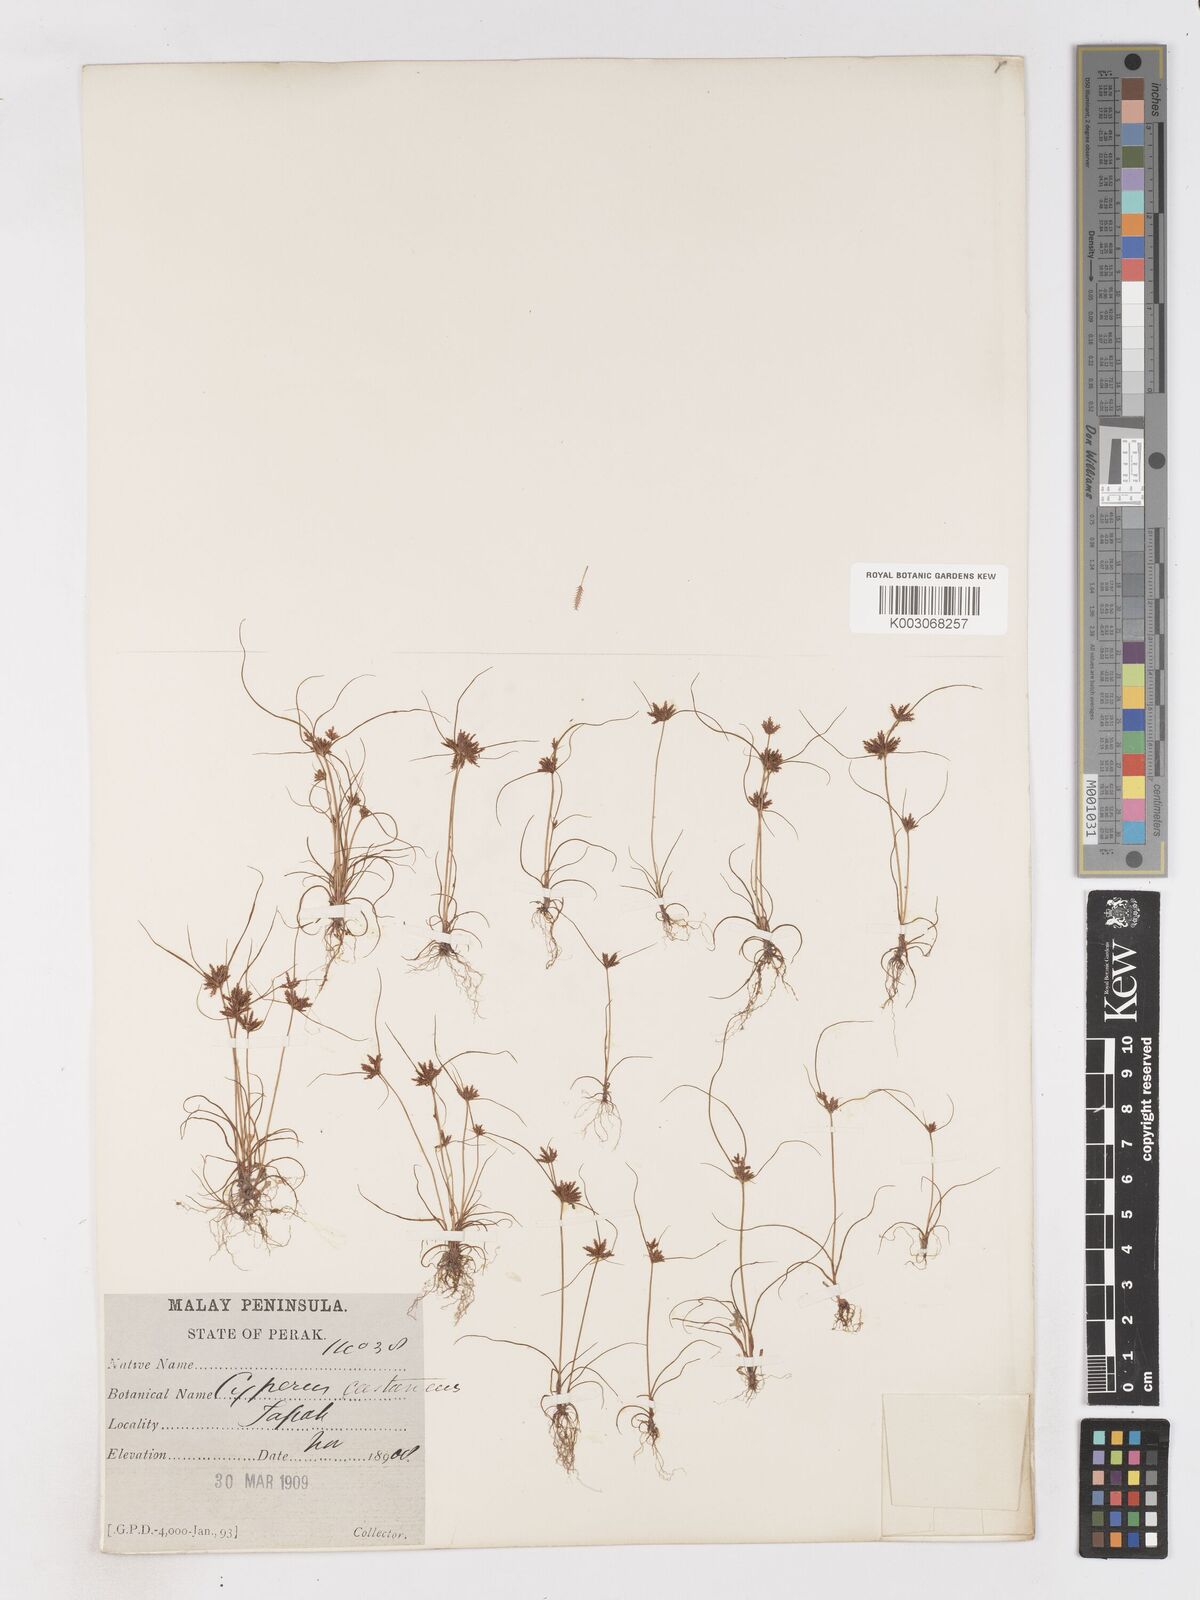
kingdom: Plantae
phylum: Tracheophyta
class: Liliopsida
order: Poales
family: Cyperaceae
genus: Cyperus
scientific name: Cyperus castaneus
